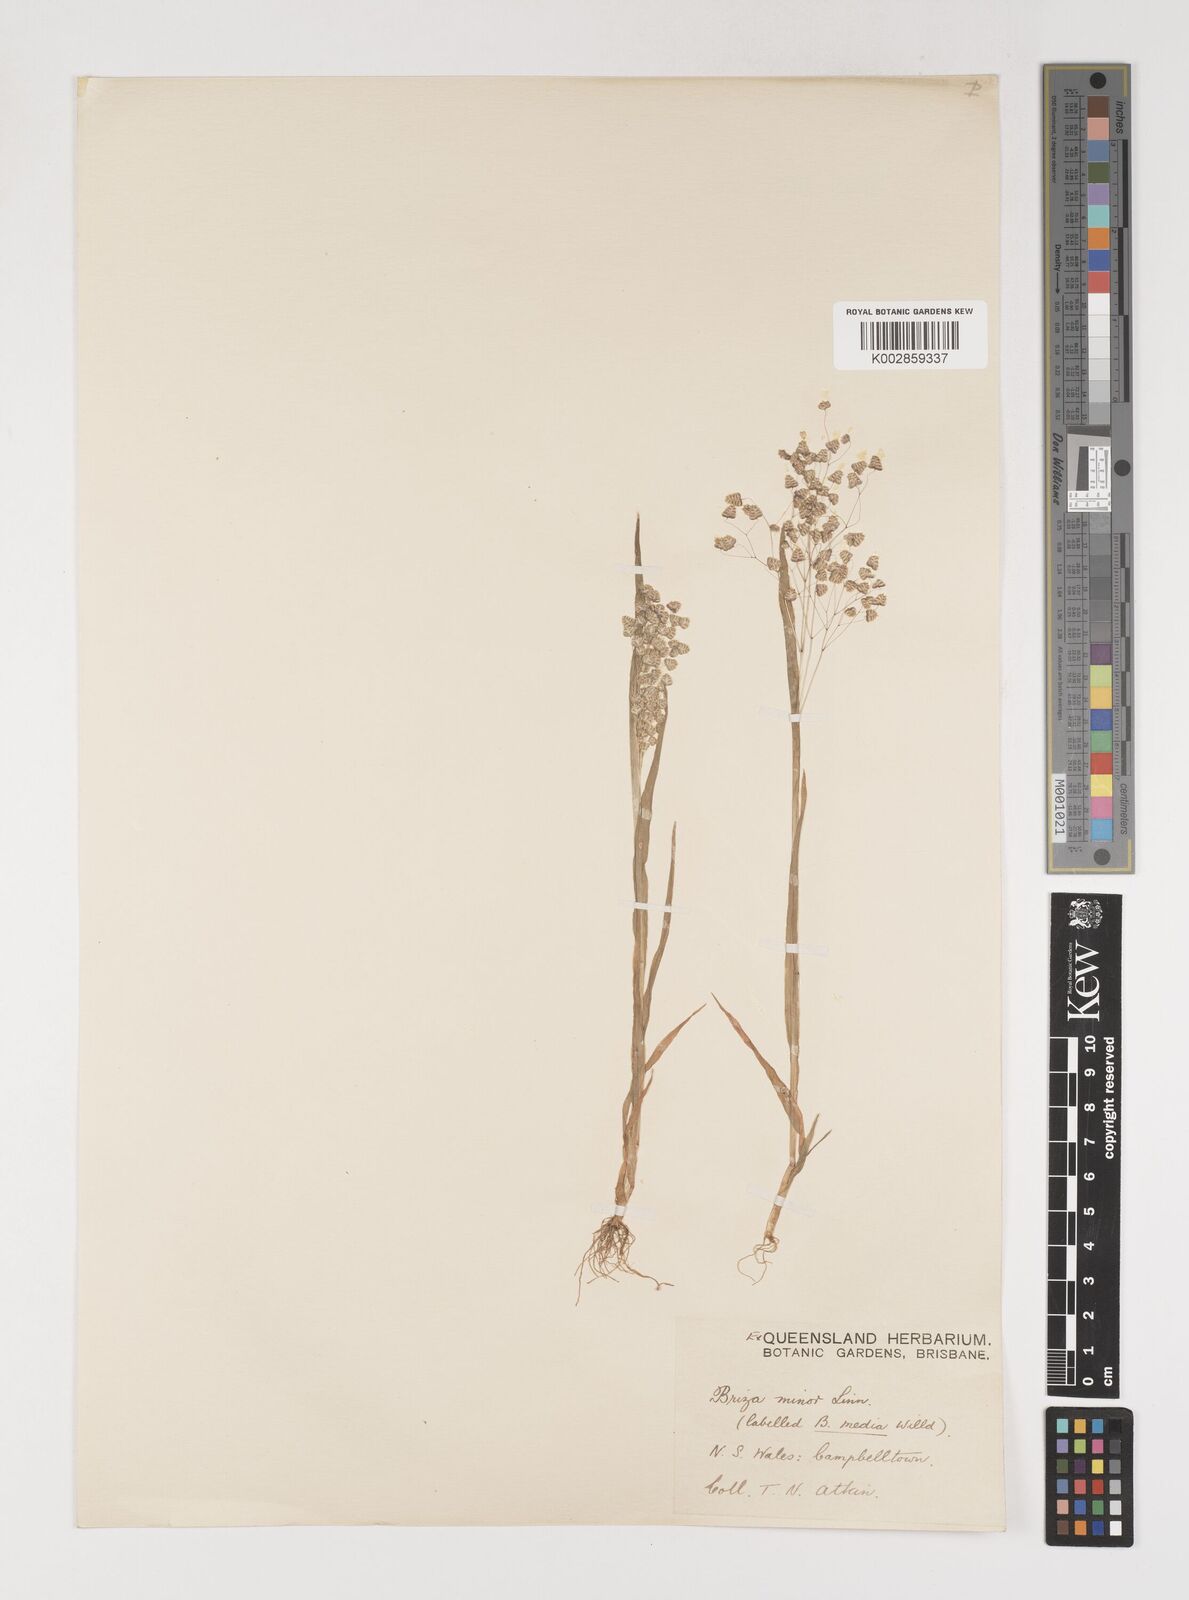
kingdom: Plantae
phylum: Tracheophyta
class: Liliopsida
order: Poales
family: Poaceae
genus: Briza
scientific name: Briza minor
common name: Lesser quaking-grass
